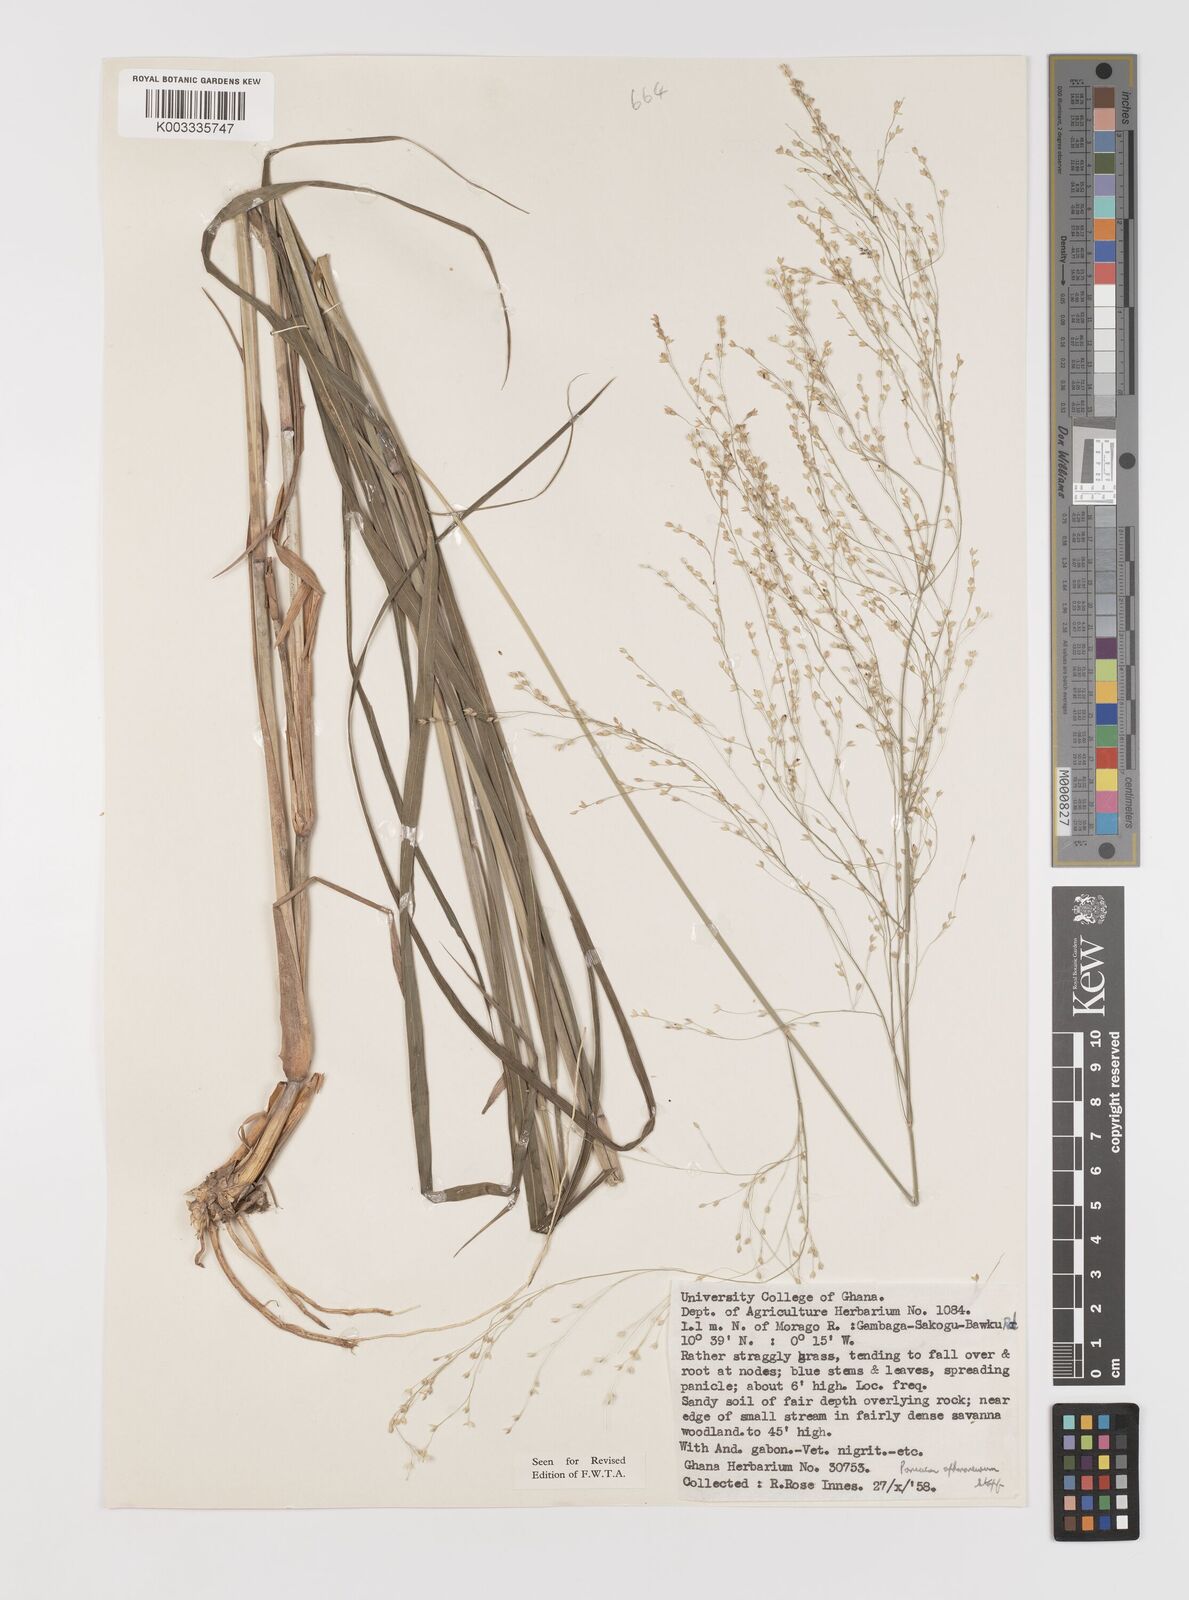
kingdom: Plantae
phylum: Tracheophyta
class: Liliopsida
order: Poales
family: Poaceae
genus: Panicum
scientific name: Panicum fluviicola
